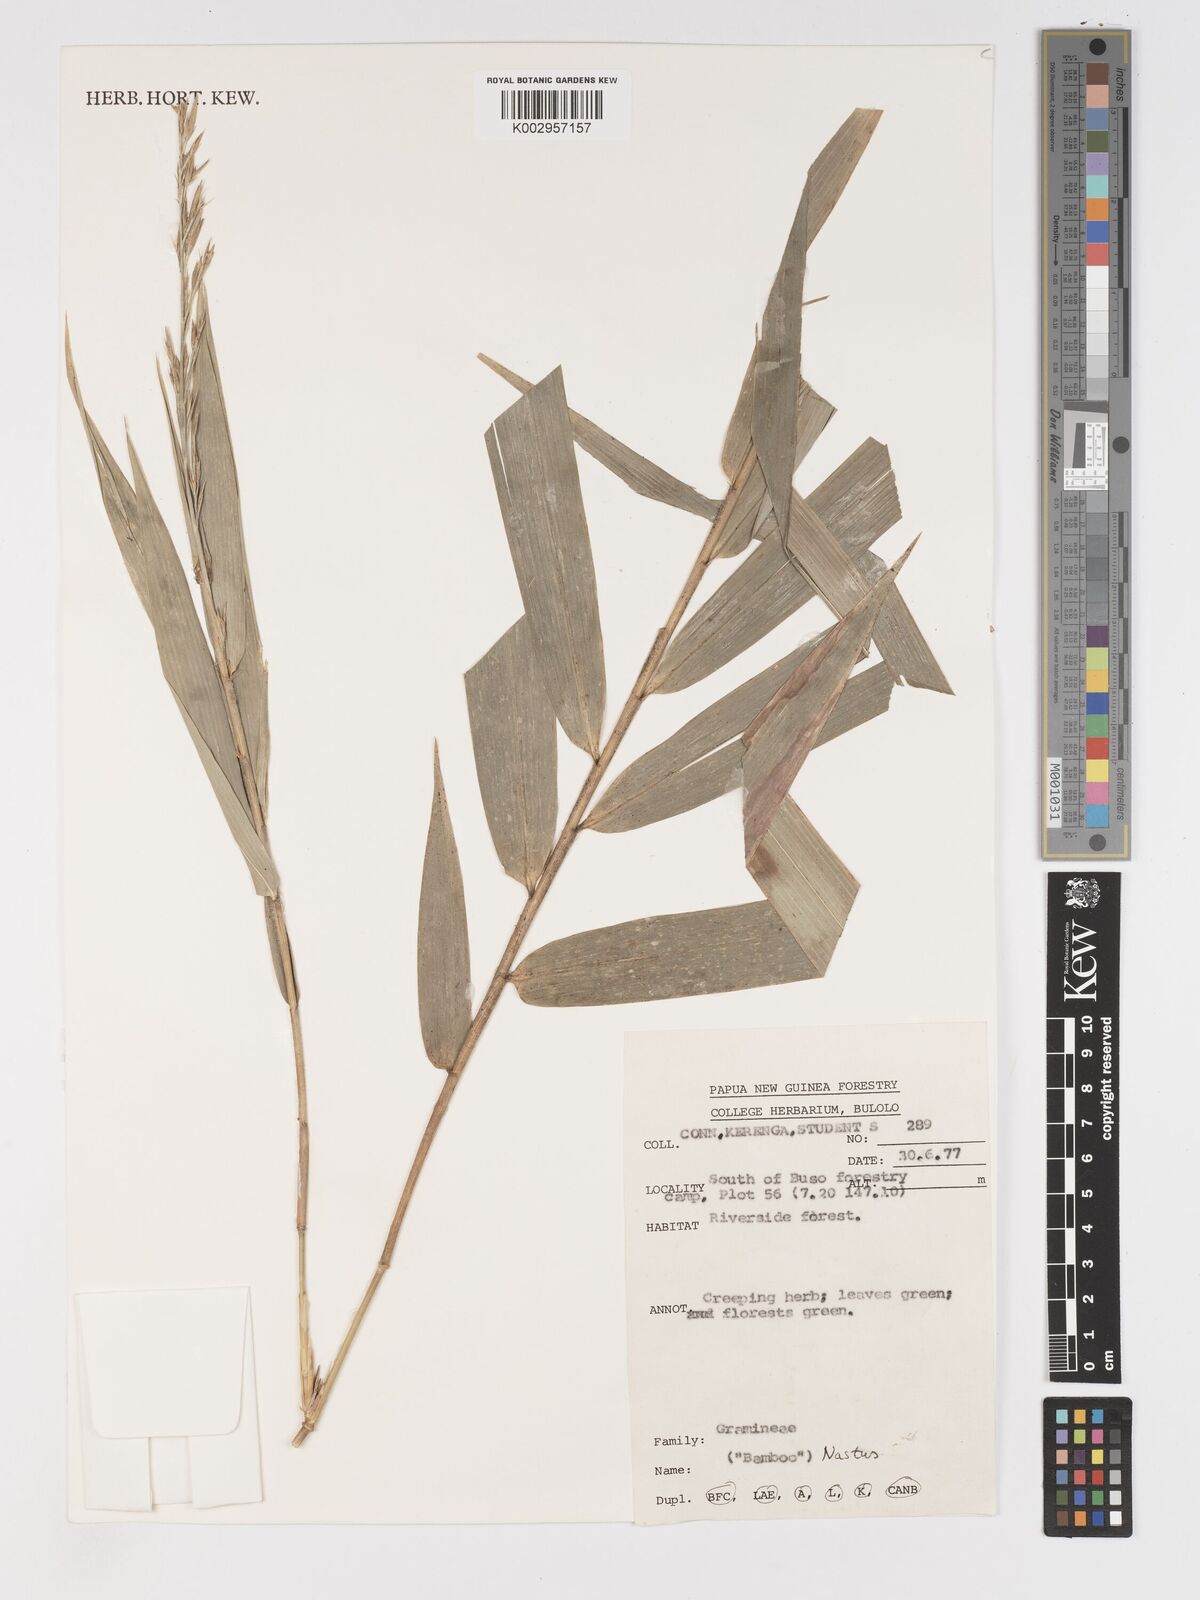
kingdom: Plantae
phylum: Tracheophyta
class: Liliopsida
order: Poales
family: Poaceae
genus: Chloothamnus
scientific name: Chloothamnus
